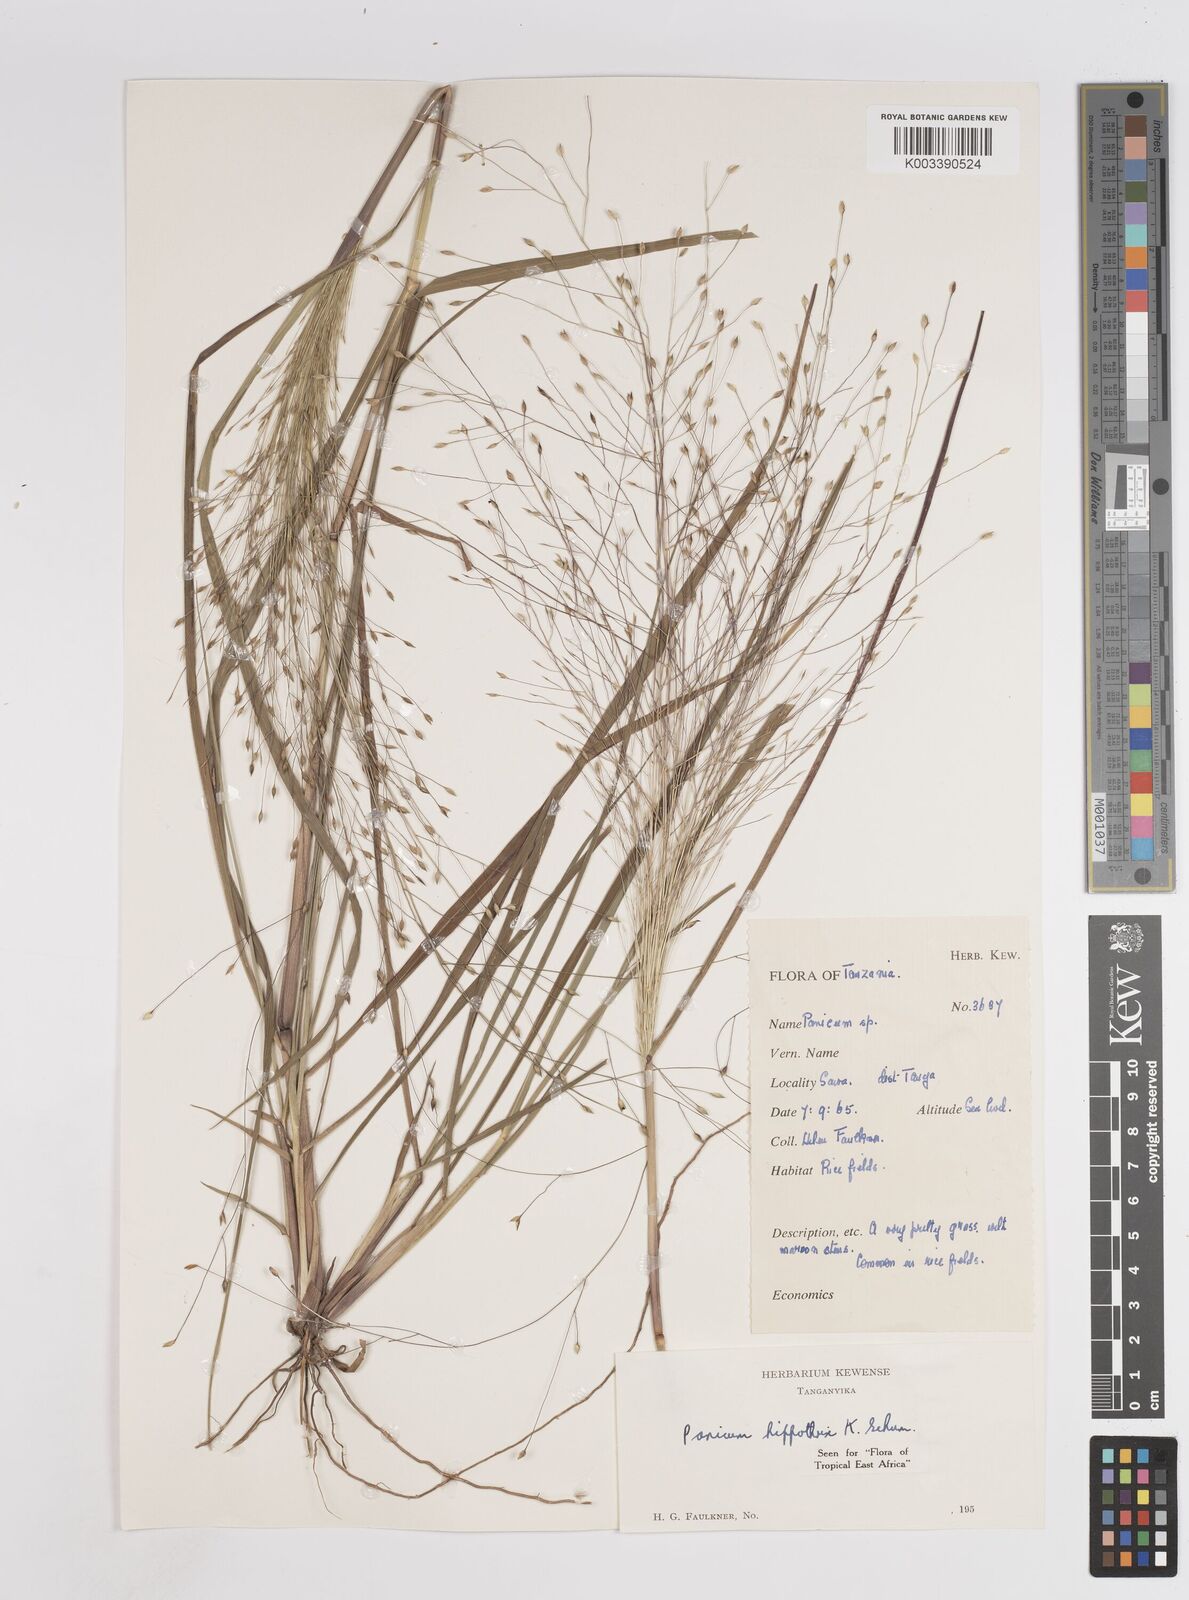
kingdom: Plantae
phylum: Tracheophyta
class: Liliopsida
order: Poales
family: Poaceae
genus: Panicum
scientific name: Panicum hippothrix
